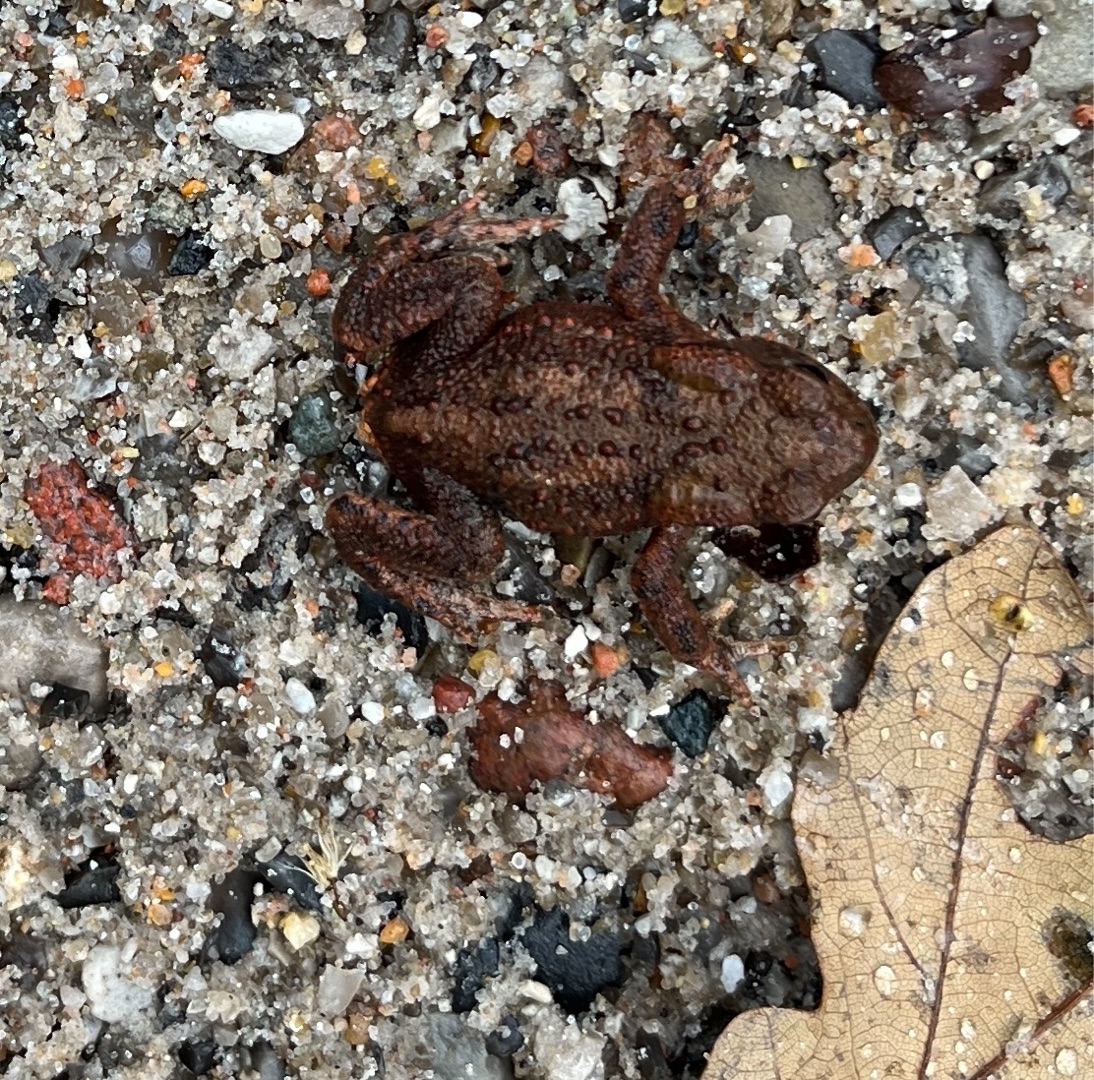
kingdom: Animalia
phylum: Chordata
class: Amphibia
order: Anura
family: Bufonidae
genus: Bufo
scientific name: Bufo bufo
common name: Skrubtudse
